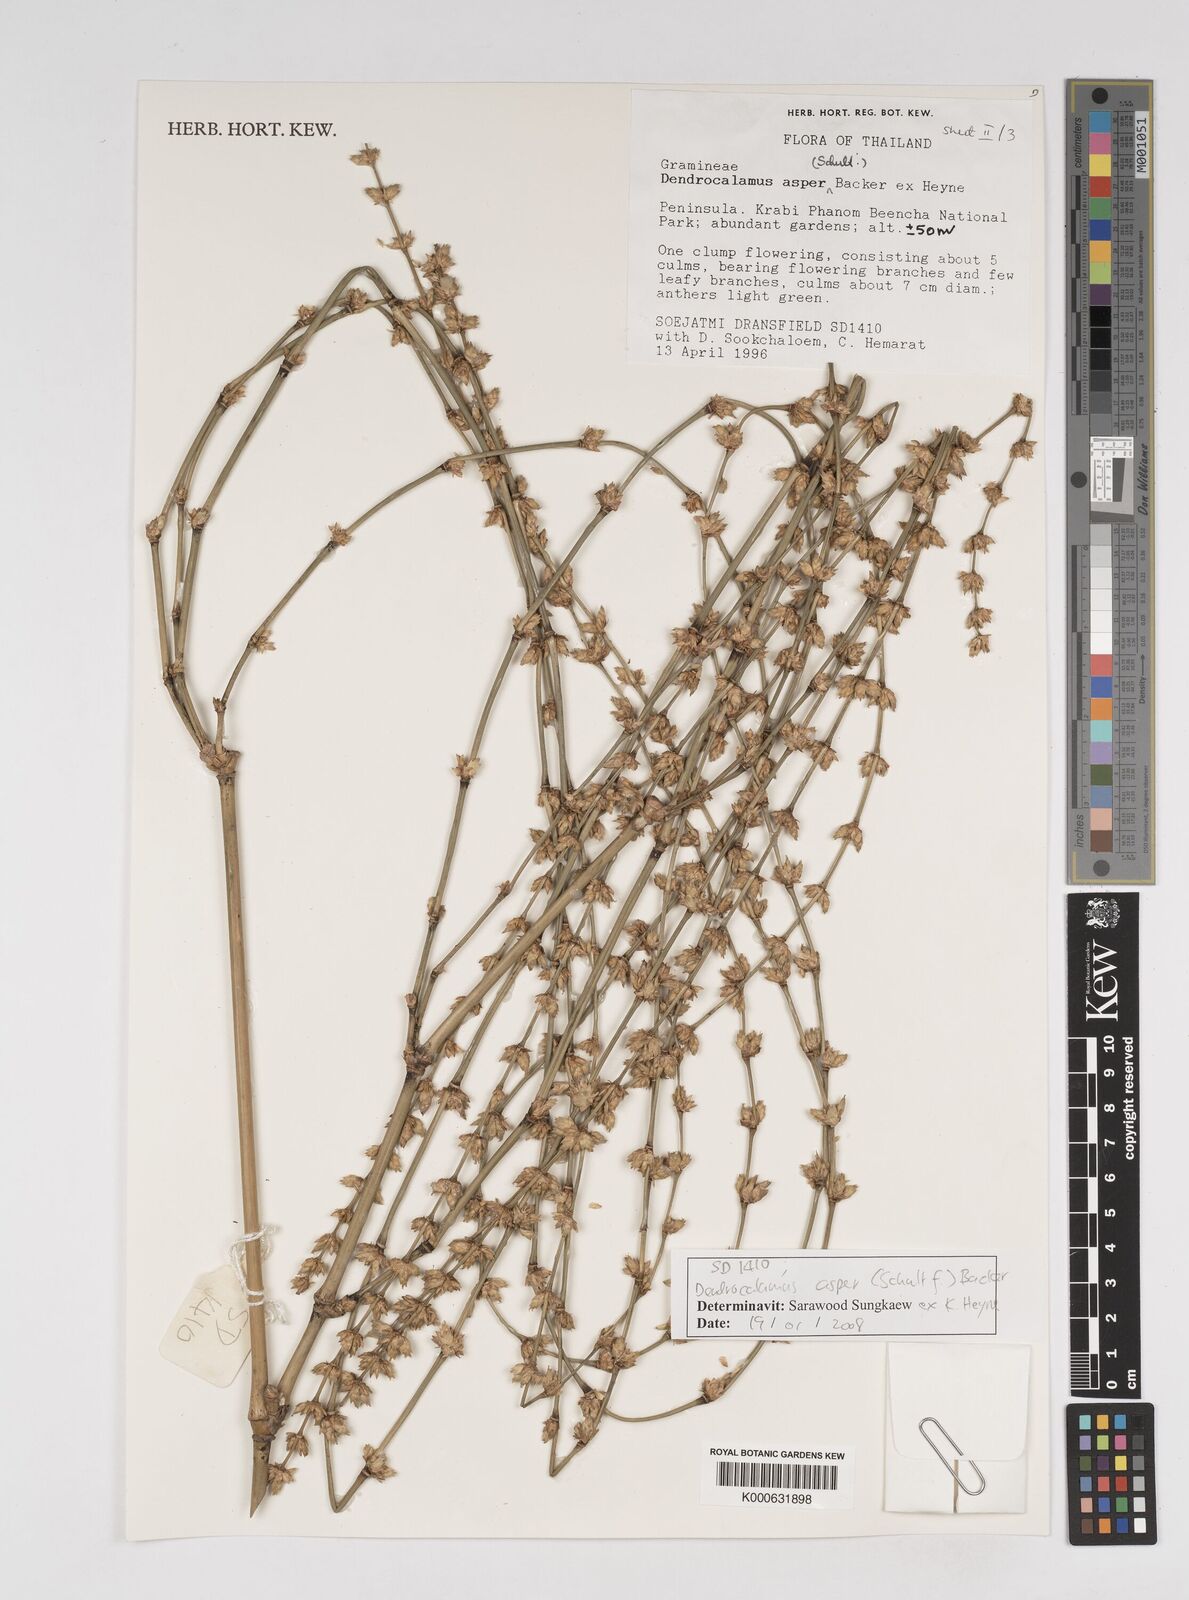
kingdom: Plantae
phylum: Tracheophyta
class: Liliopsida
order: Poales
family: Poaceae
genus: Dendrocalamus
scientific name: Dendrocalamus
